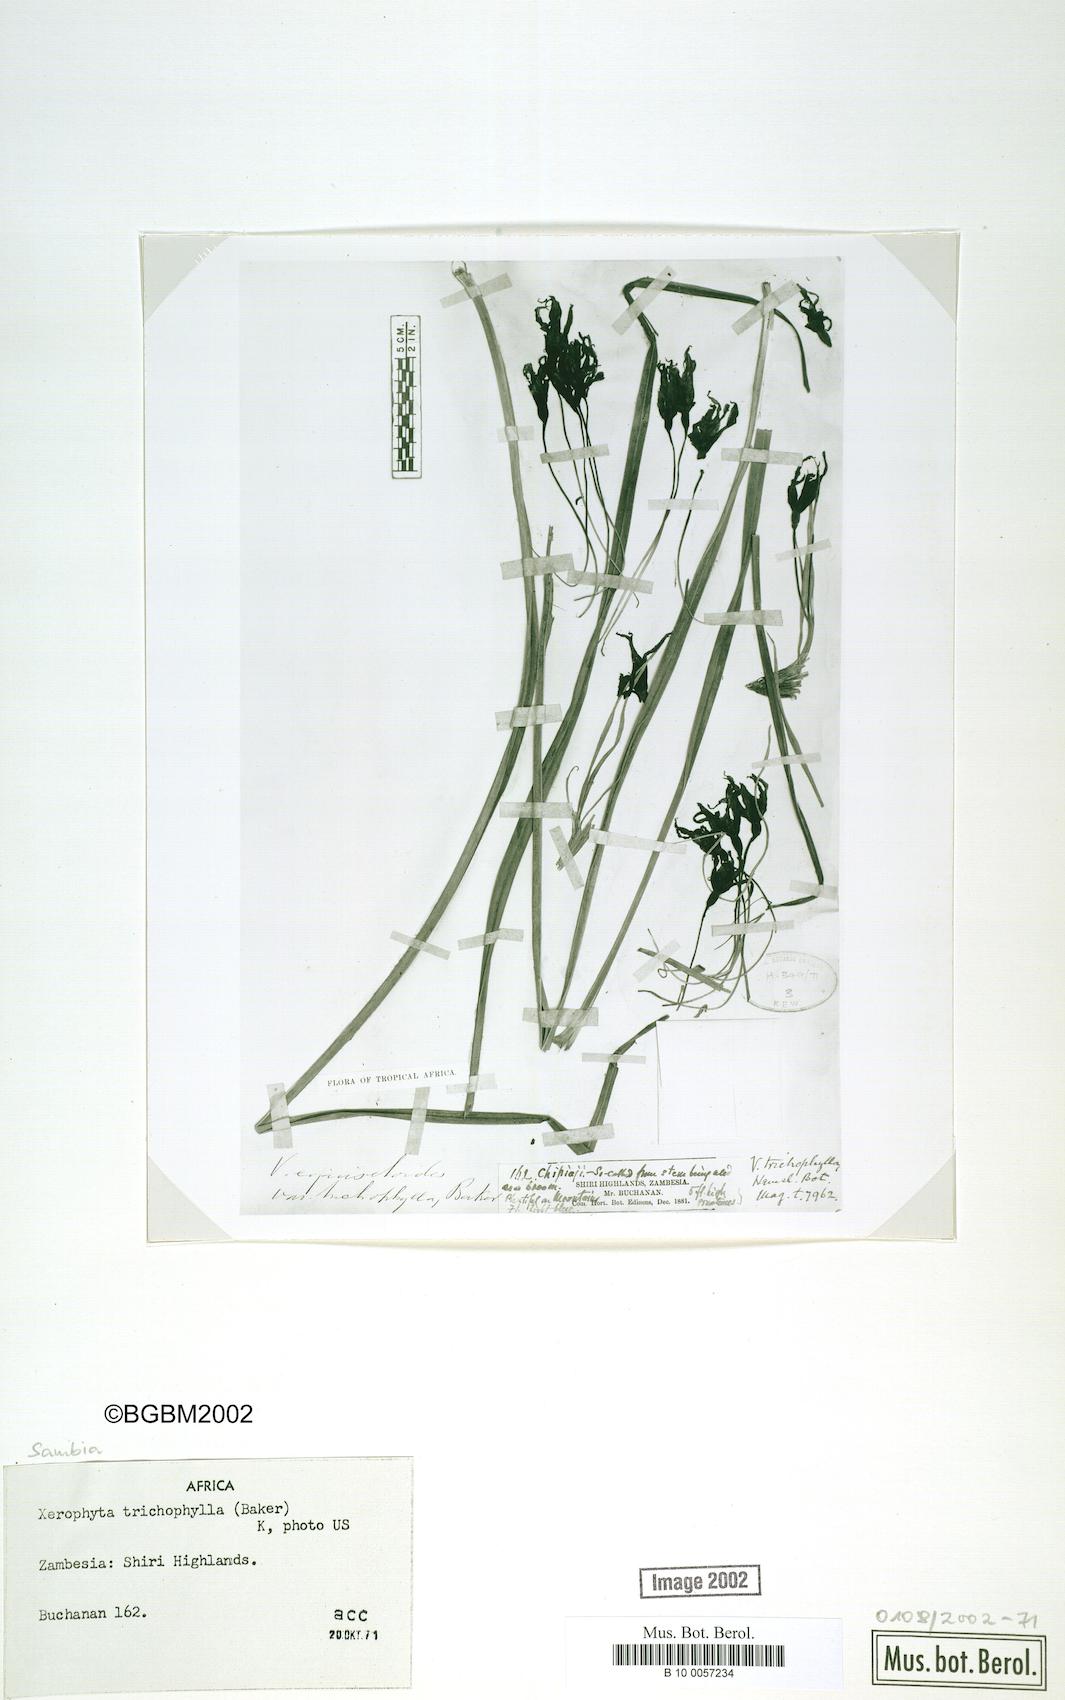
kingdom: Plantae
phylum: Tracheophyta
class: Liliopsida
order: Pandanales
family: Velloziaceae
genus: Xerophyta
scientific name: Xerophyta trichophylla
